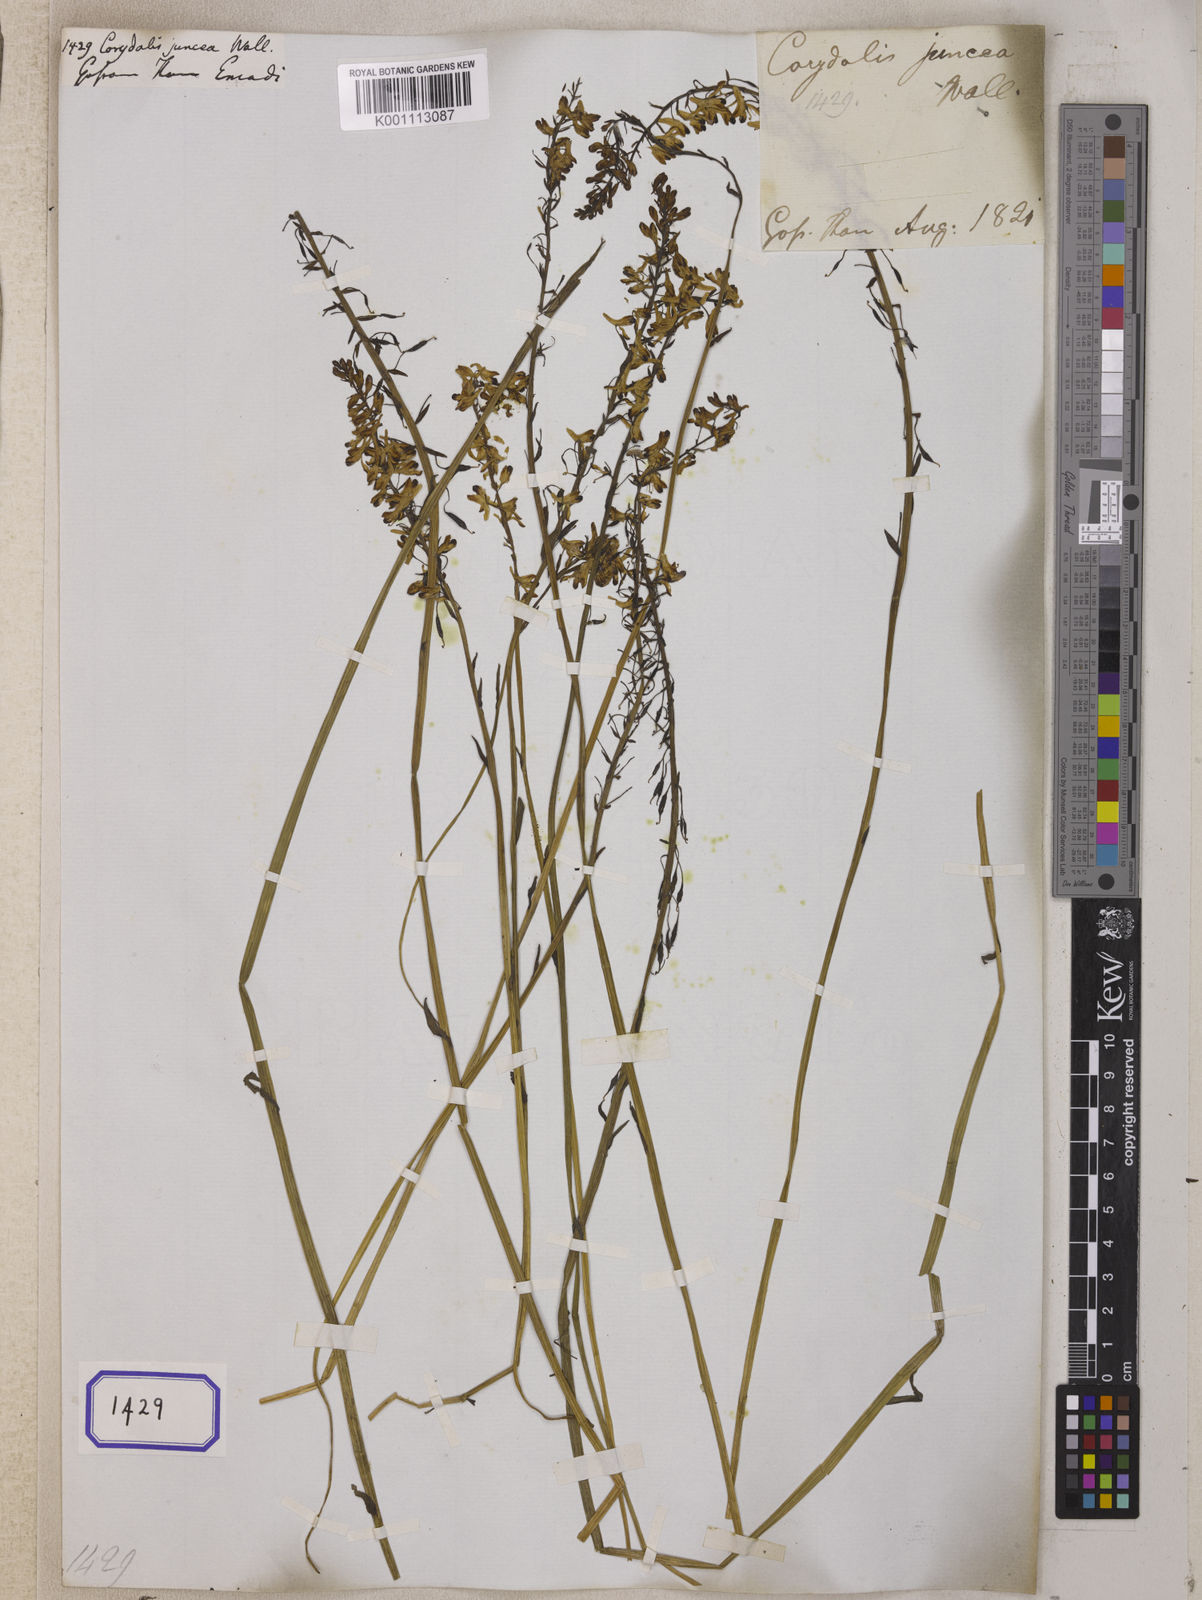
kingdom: Plantae
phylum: Tracheophyta
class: Magnoliopsida
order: Ranunculales
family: Papaveraceae
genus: Corydalis
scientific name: Corydalis juncea
